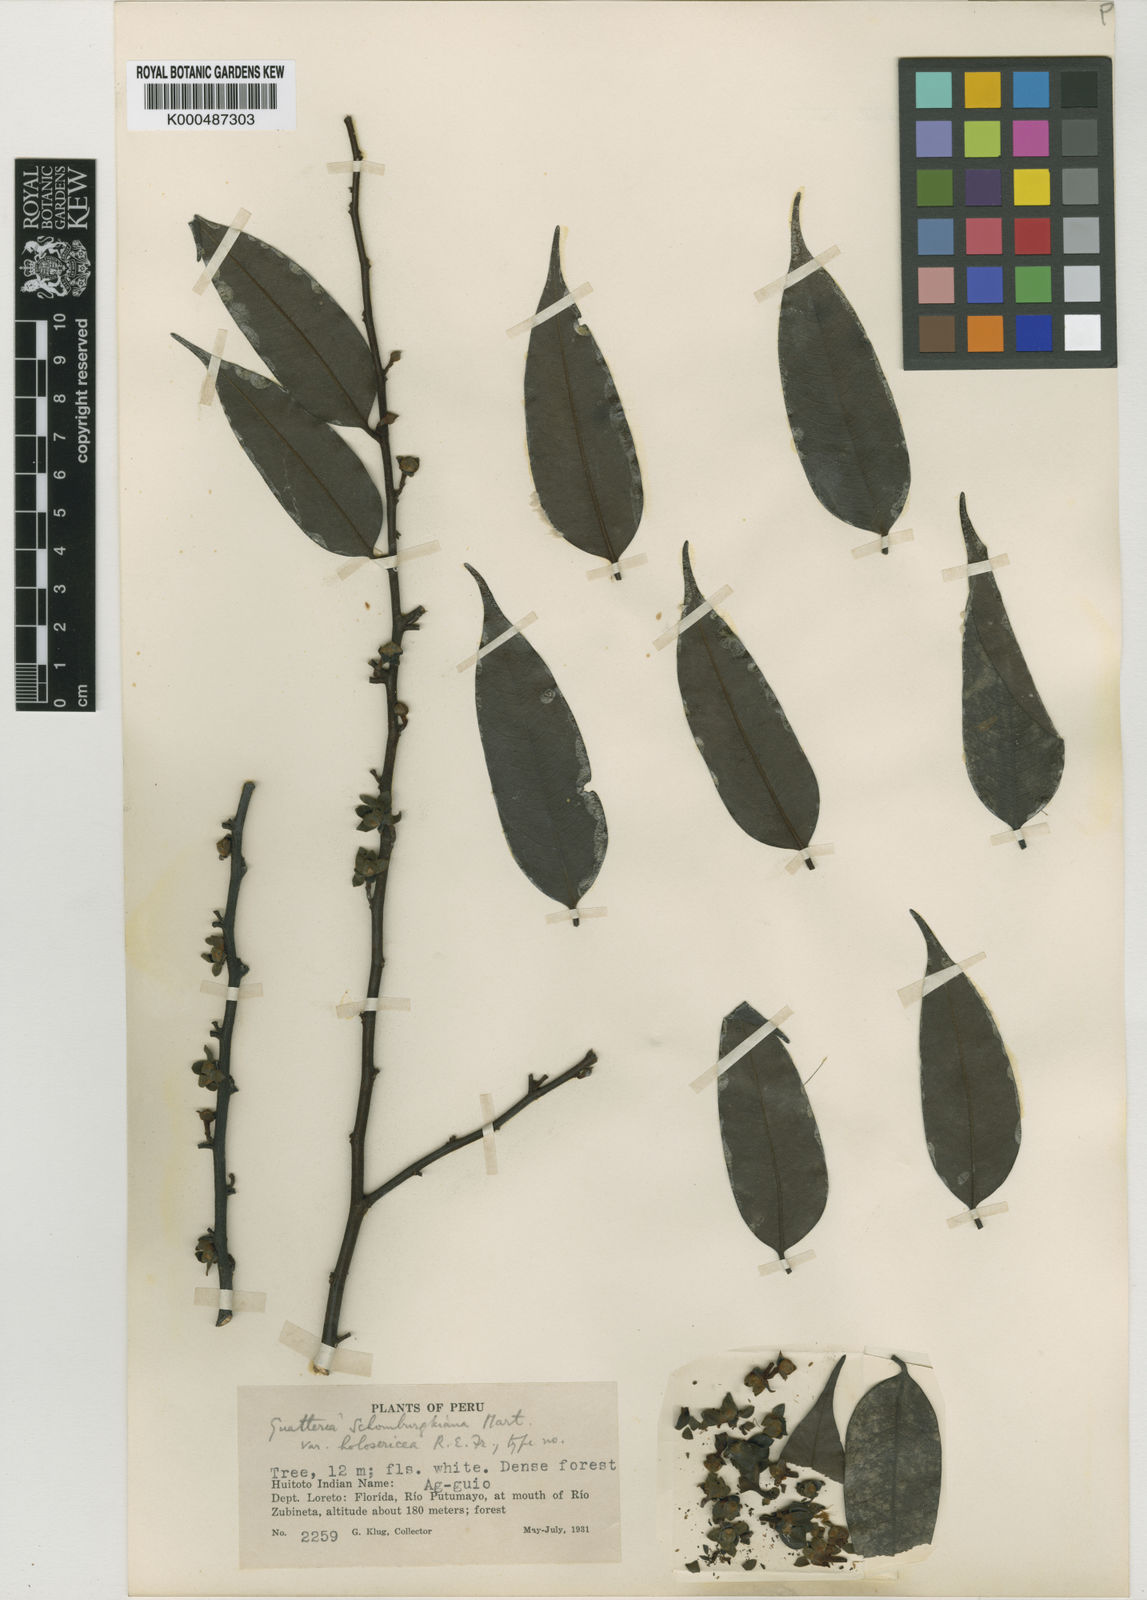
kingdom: Plantae
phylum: Tracheophyta
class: Magnoliopsida
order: Magnoliales
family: Annonaceae
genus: Guatteria
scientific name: Guatteria schomburgkiana
